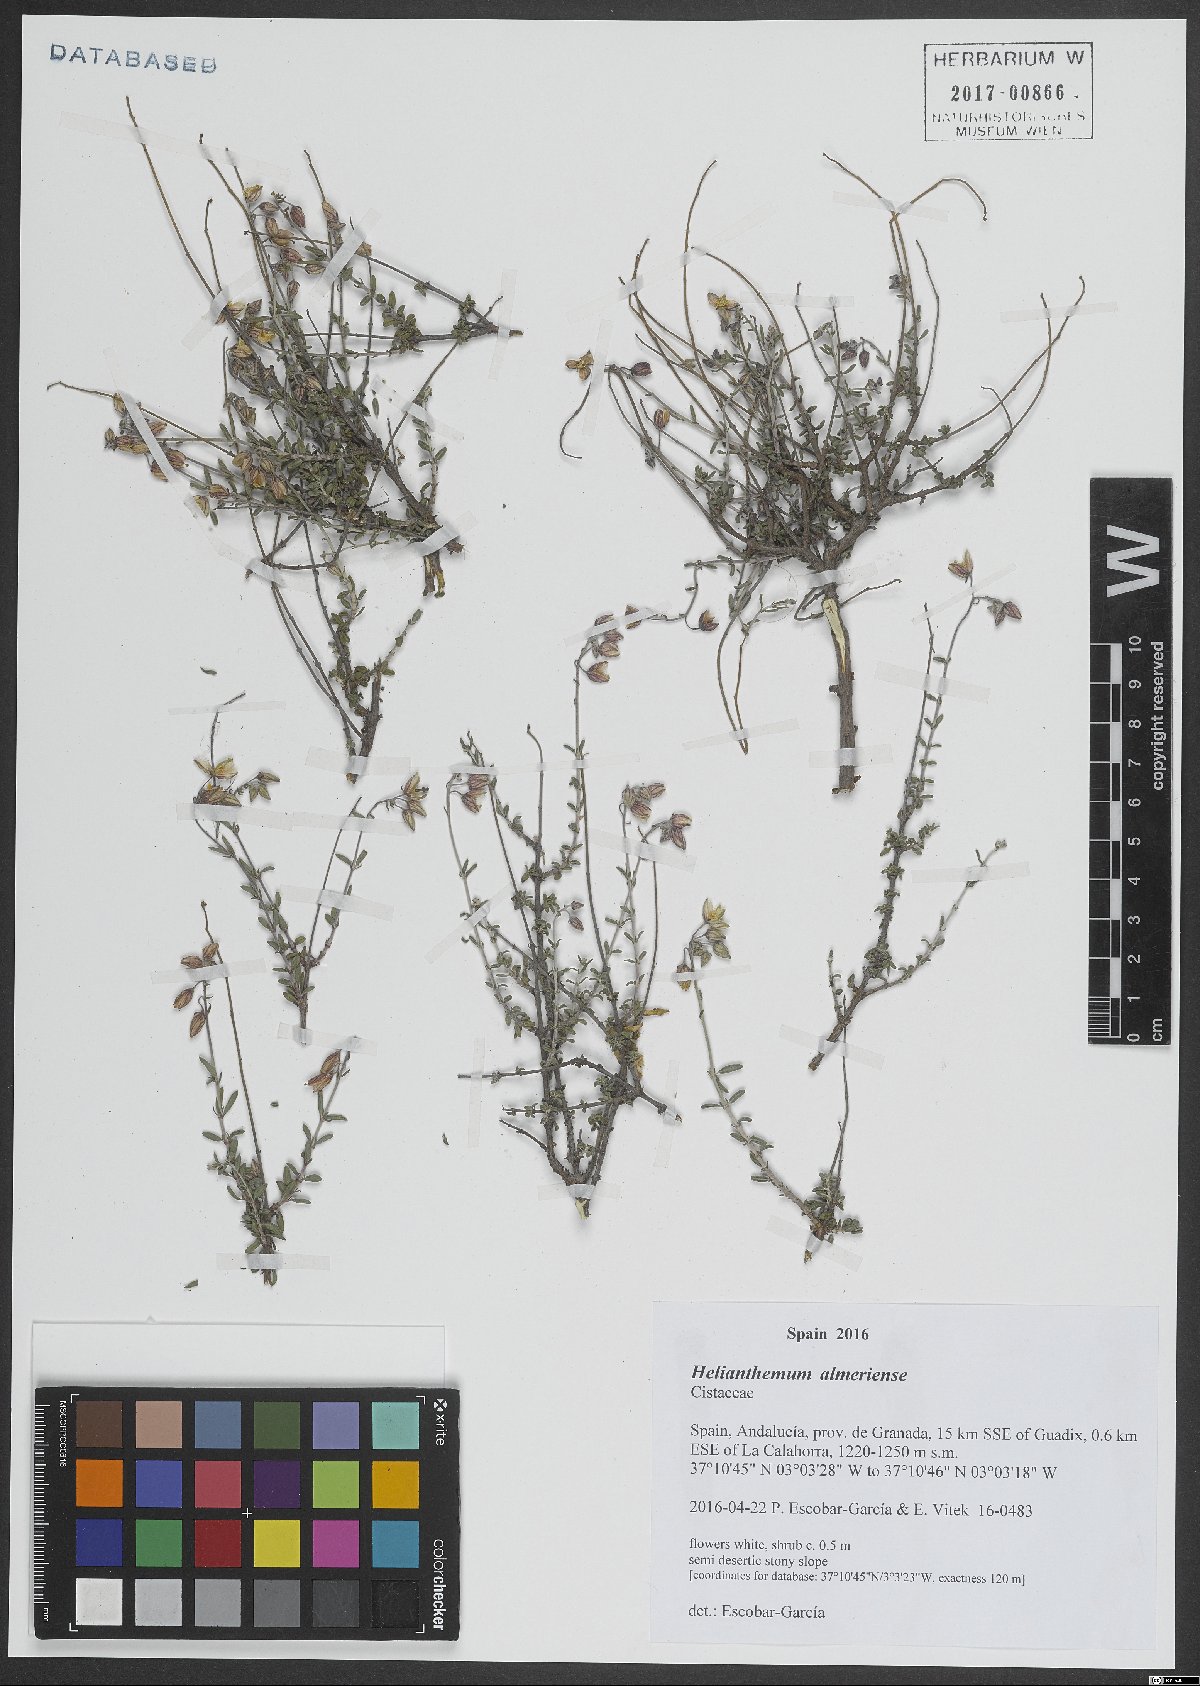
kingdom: Plantae
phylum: Tracheophyta
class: Magnoliopsida
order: Malvales
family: Cistaceae
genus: Helianthemum
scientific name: Helianthemum almeriense
